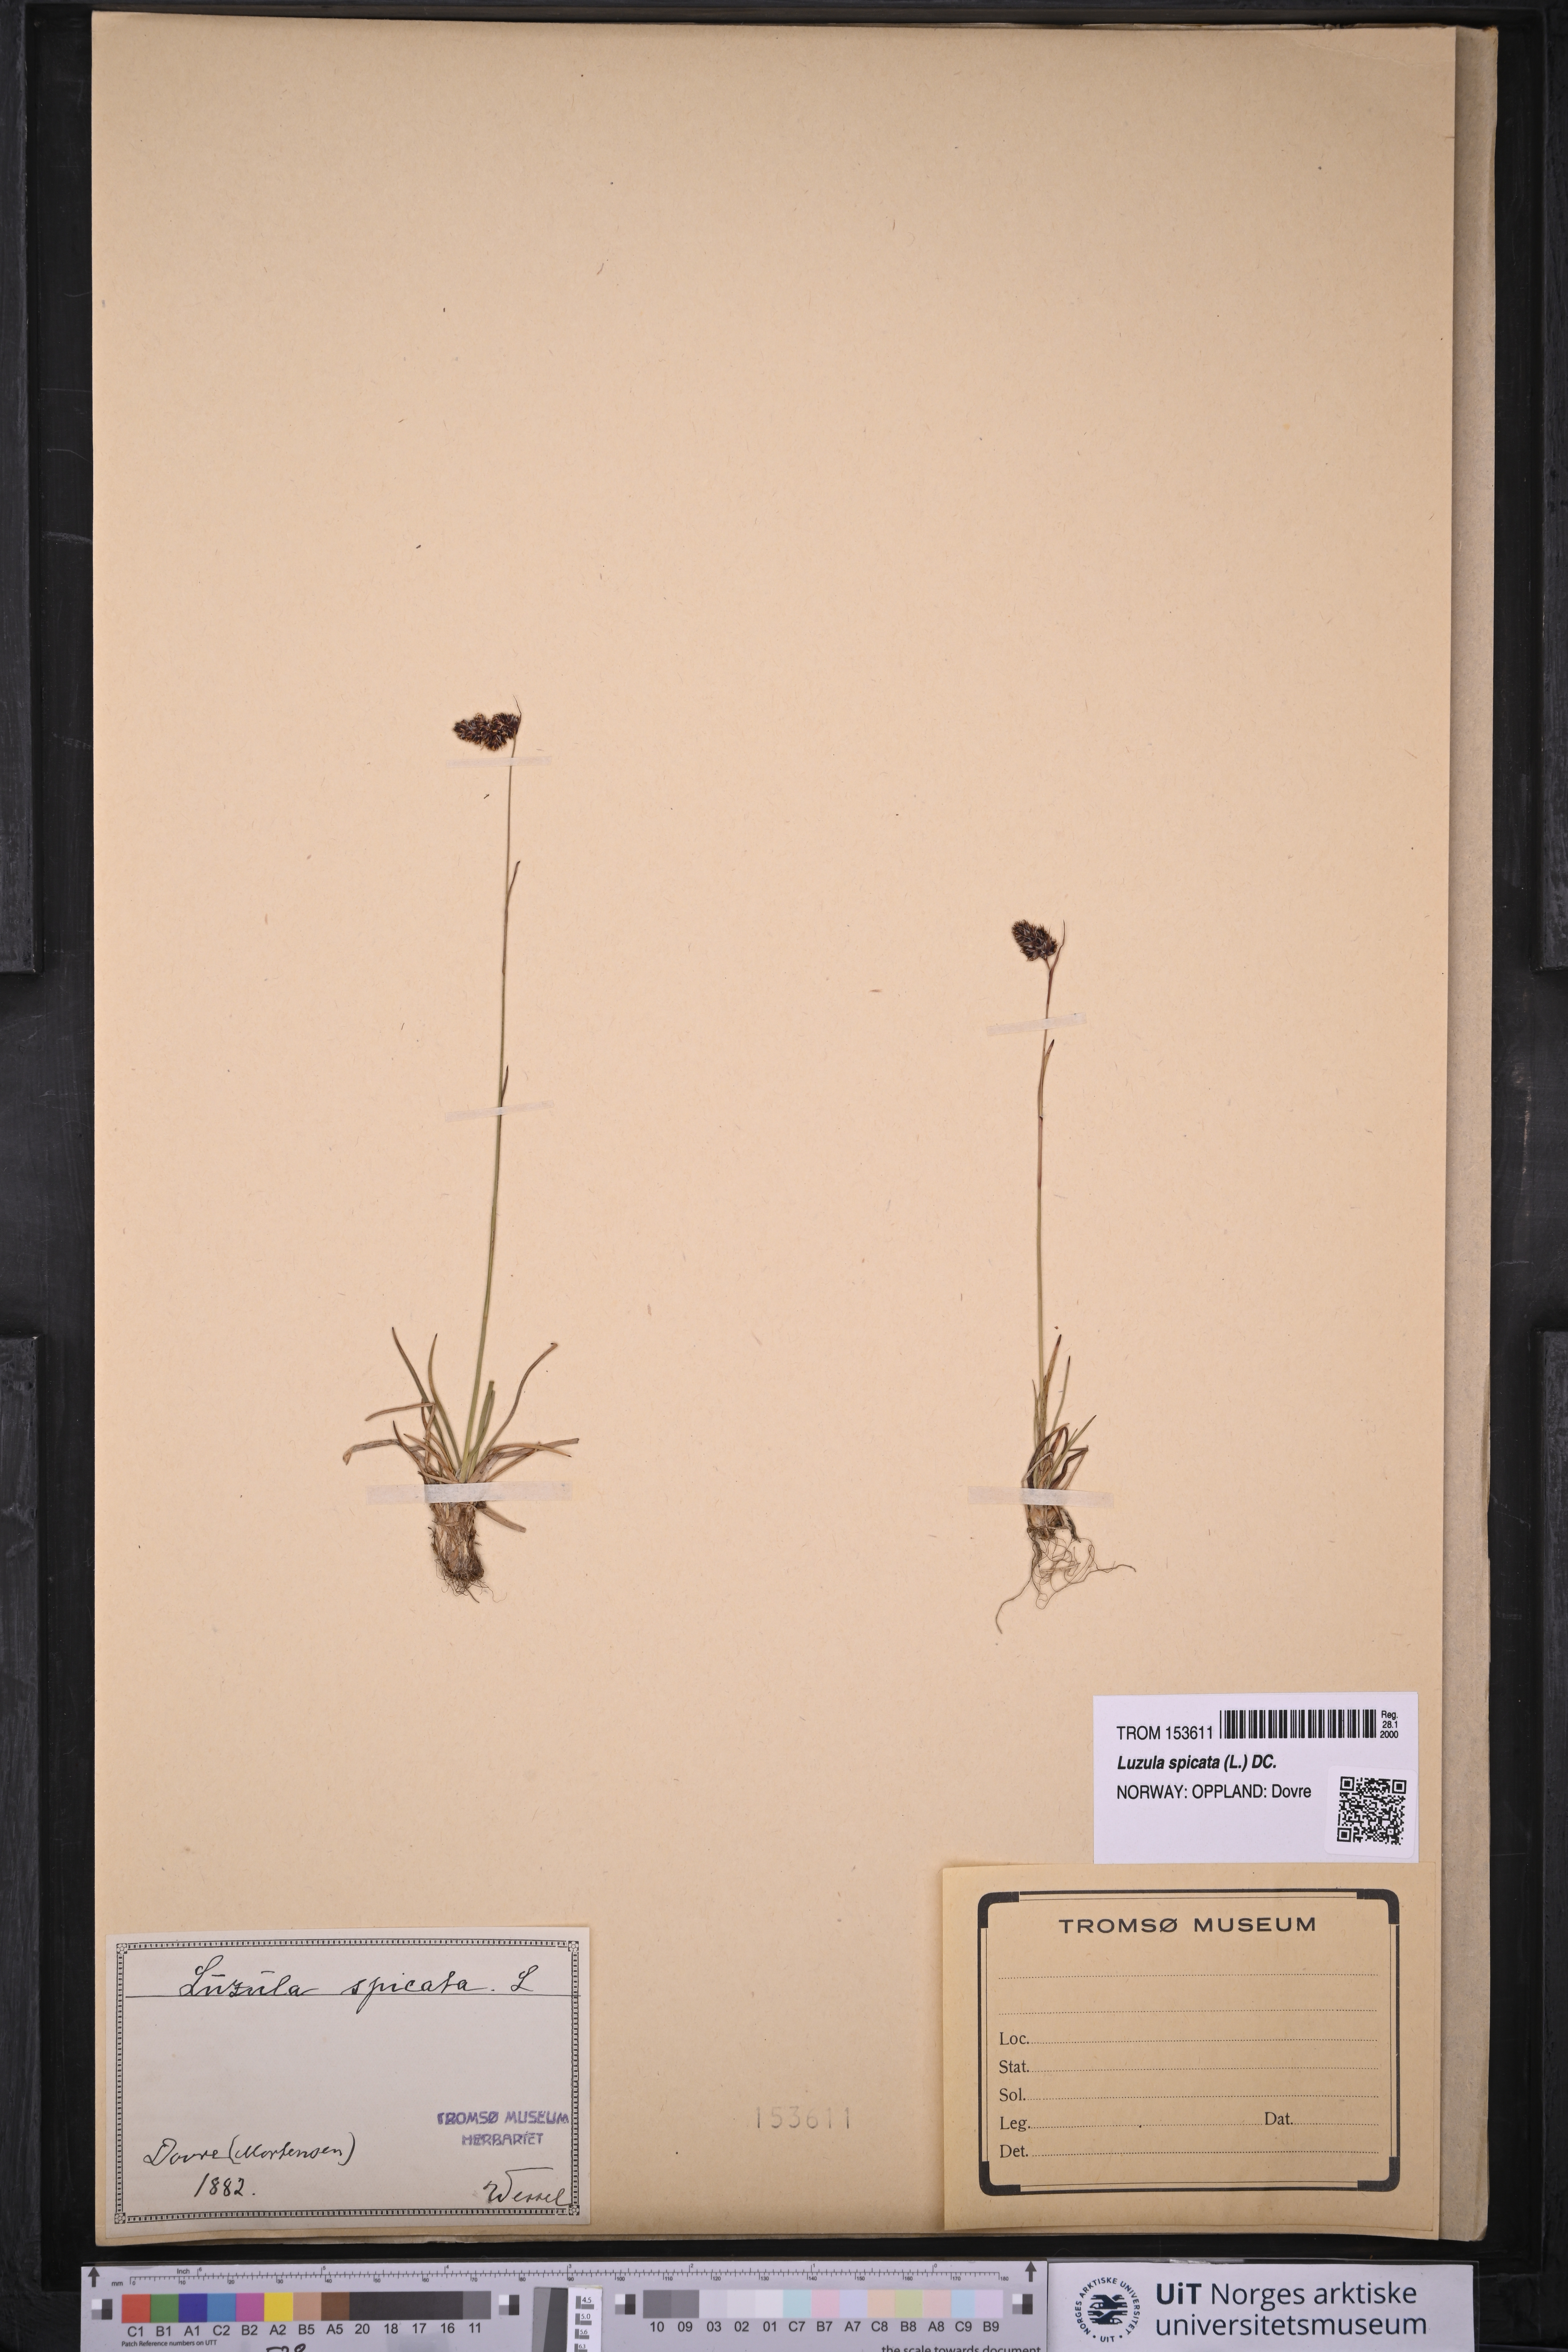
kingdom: Plantae
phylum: Tracheophyta
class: Liliopsida
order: Poales
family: Juncaceae
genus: Luzula
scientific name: Luzula spicata
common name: Spiked wood-rush
